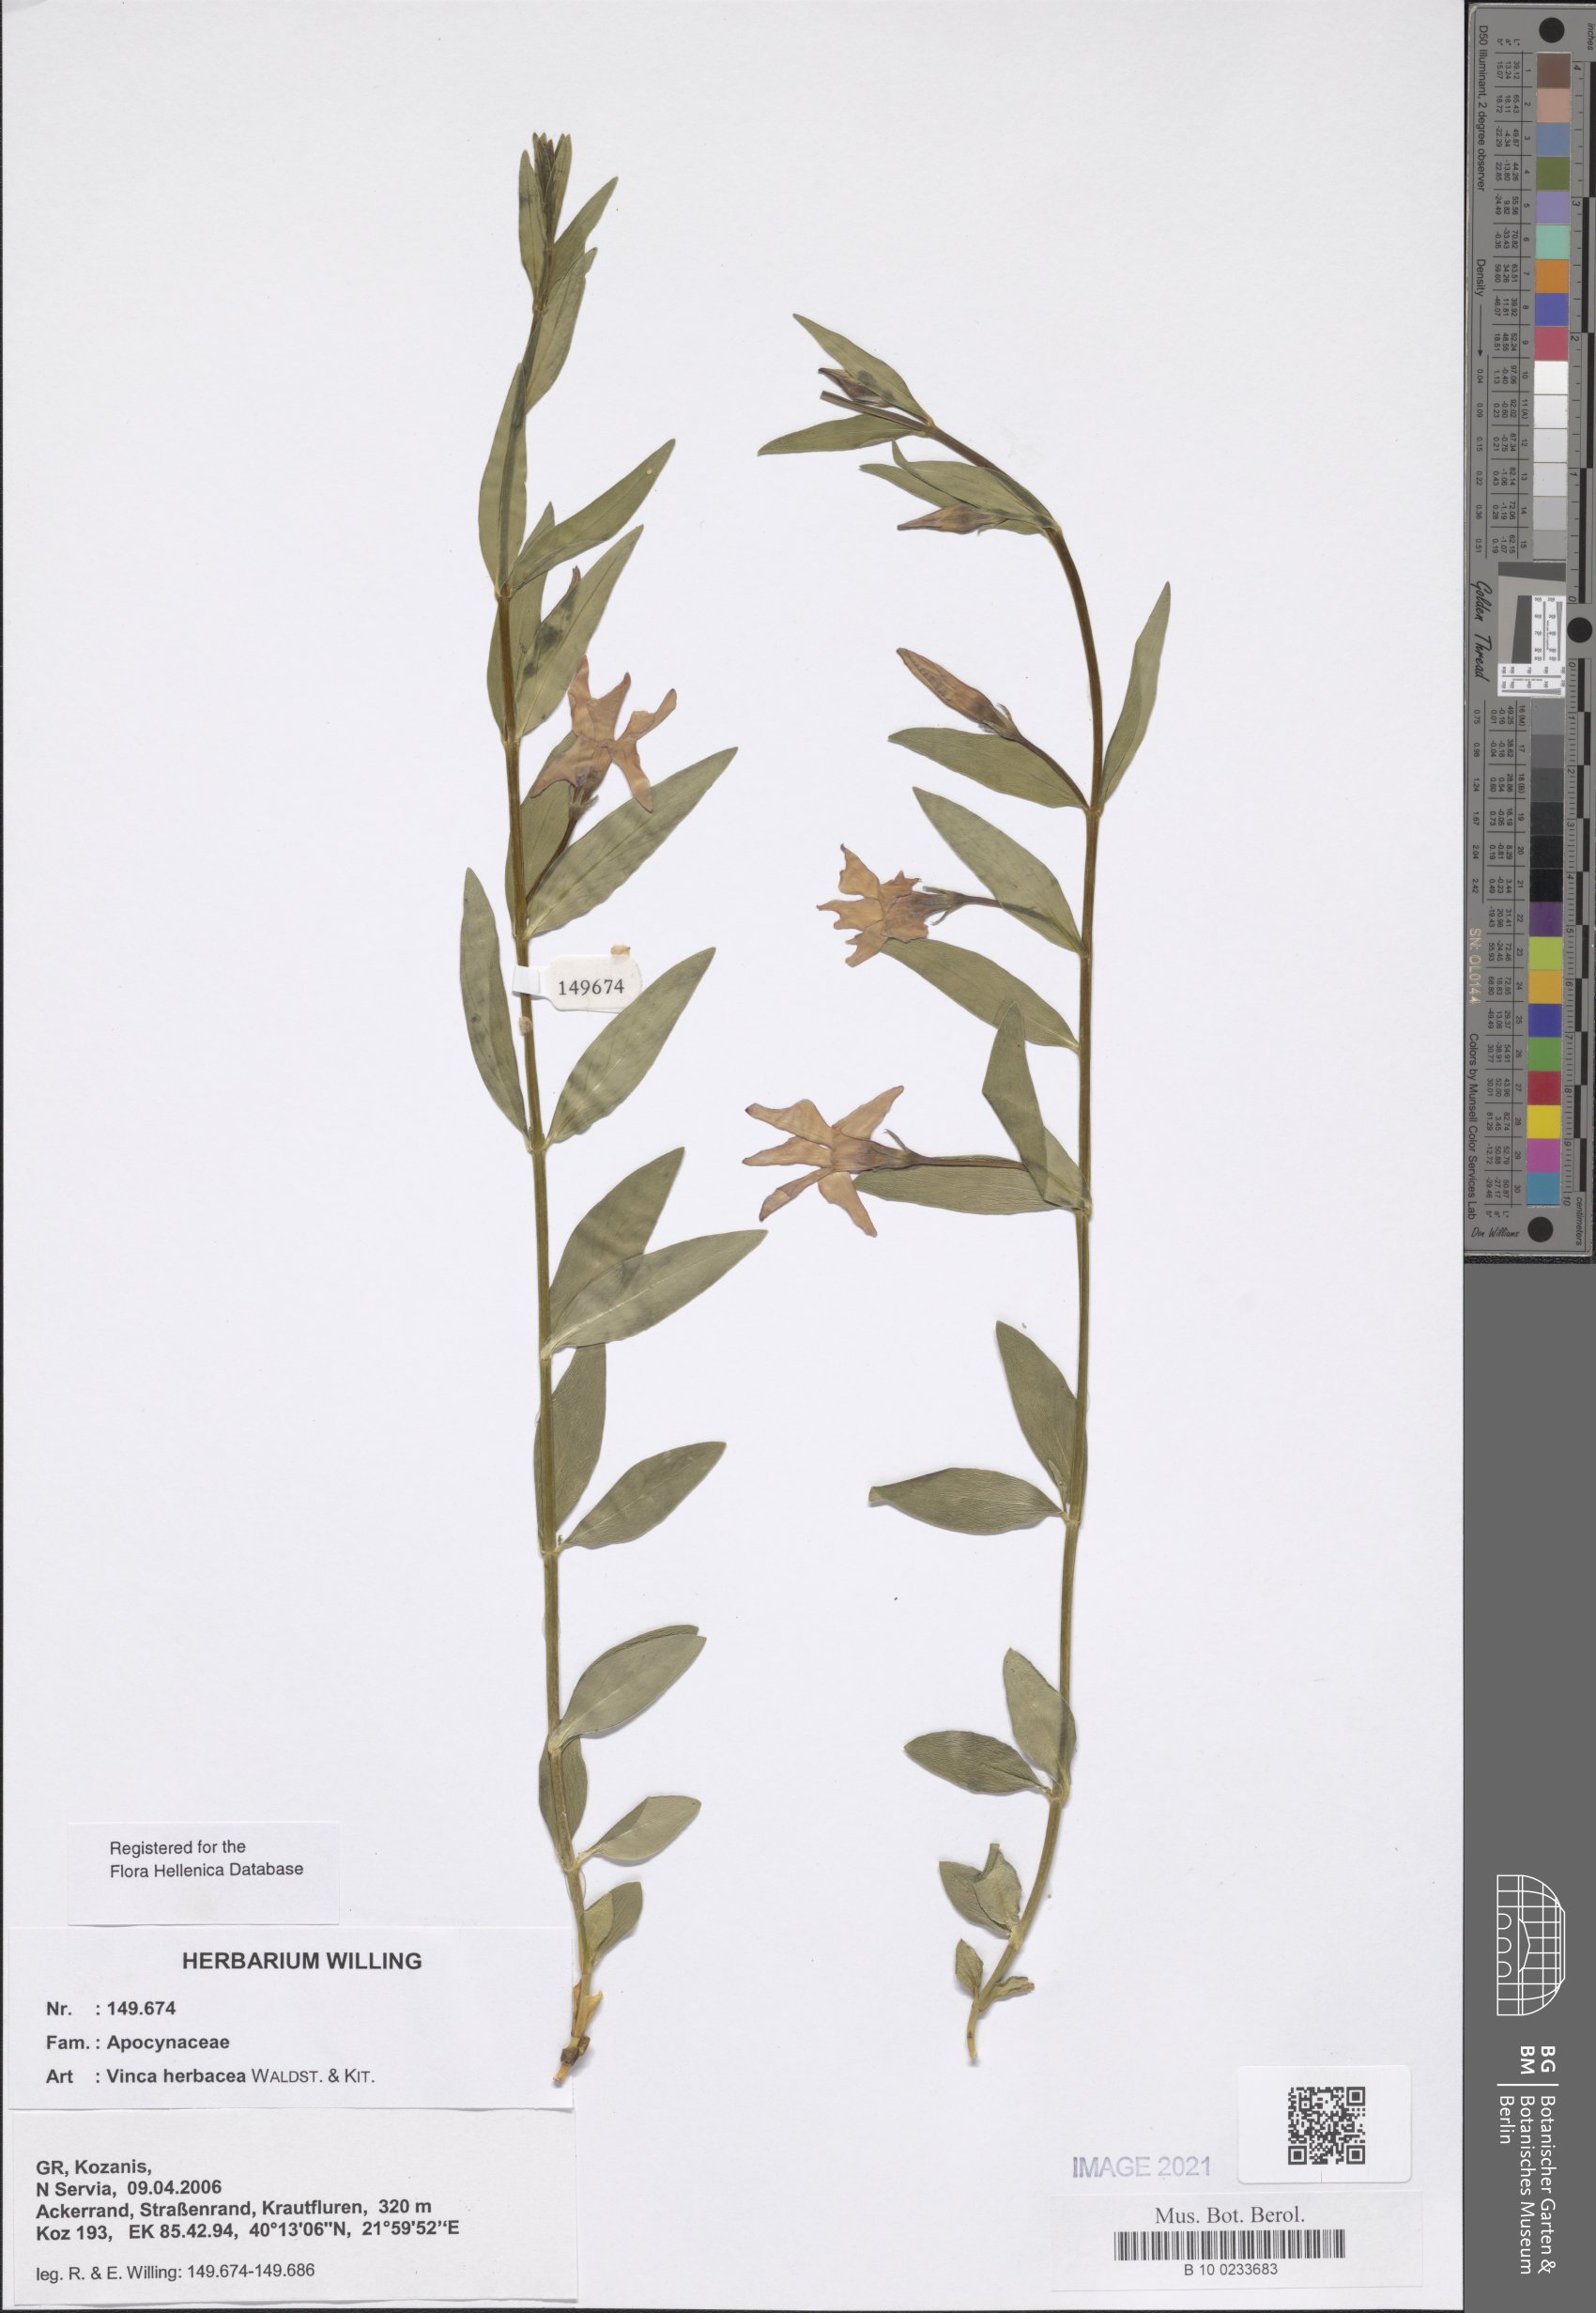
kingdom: Plantae
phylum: Tracheophyta
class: Magnoliopsida
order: Gentianales
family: Apocynaceae
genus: Vinca
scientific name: Vinca herbacea
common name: Herbaceous periwinkle
